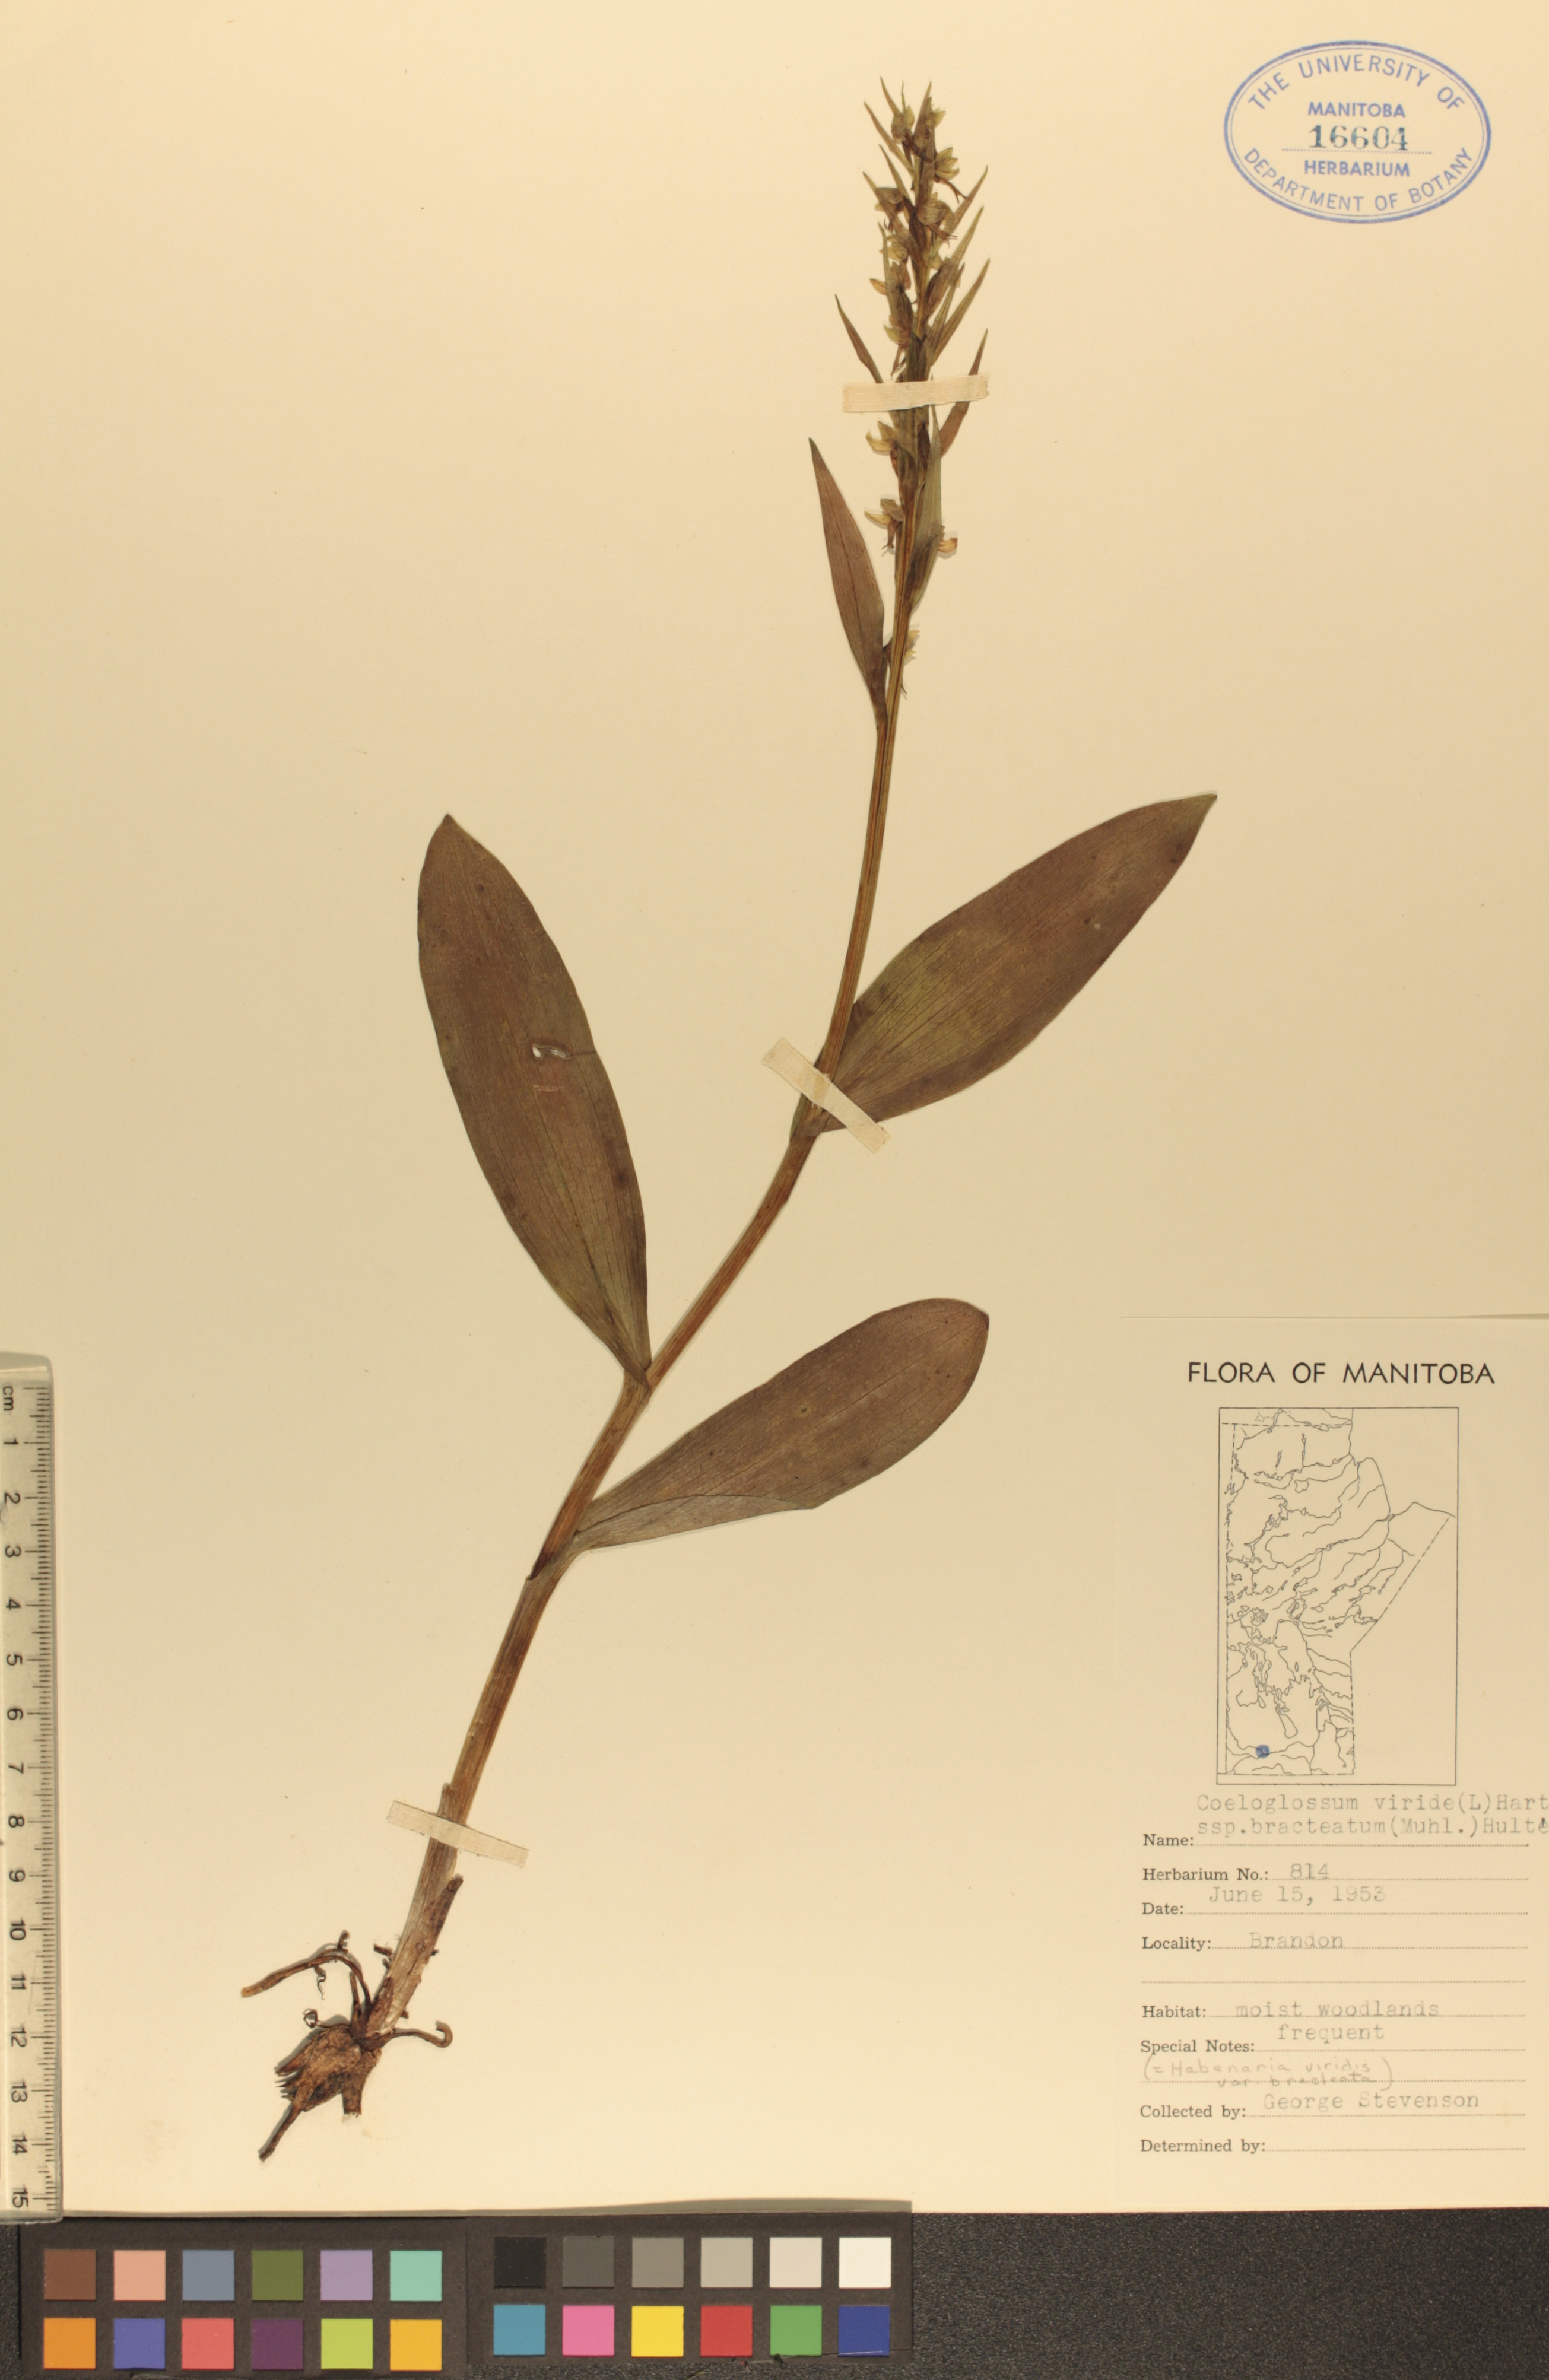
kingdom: Plantae
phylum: Tracheophyta
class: Liliopsida
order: Asparagales
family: Orchidaceae
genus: Dactylorhiza
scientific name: Dactylorhiza viridis
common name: Longbract frog orchid
